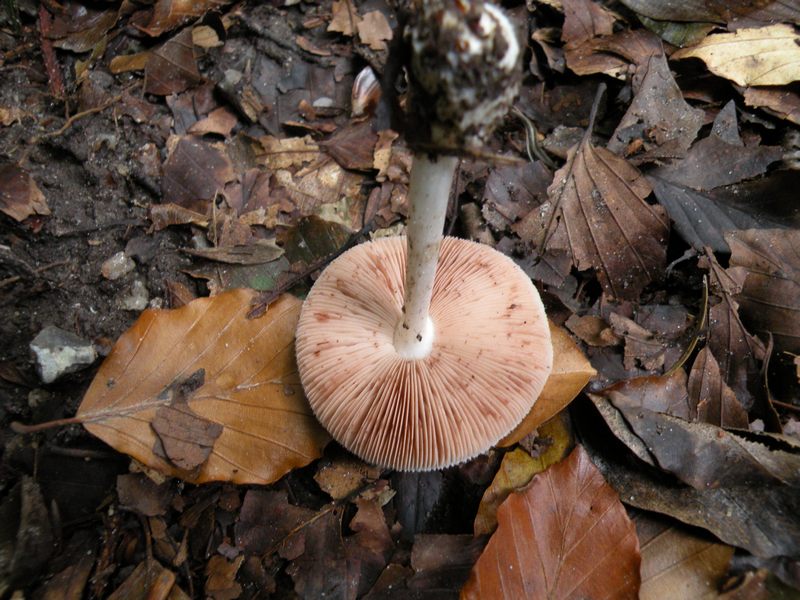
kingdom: Fungi
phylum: Basidiomycota
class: Agaricomycetes
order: Agaricales
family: Pluteaceae
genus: Pluteus
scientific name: Pluteus salicinus
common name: stiv skærmhat
